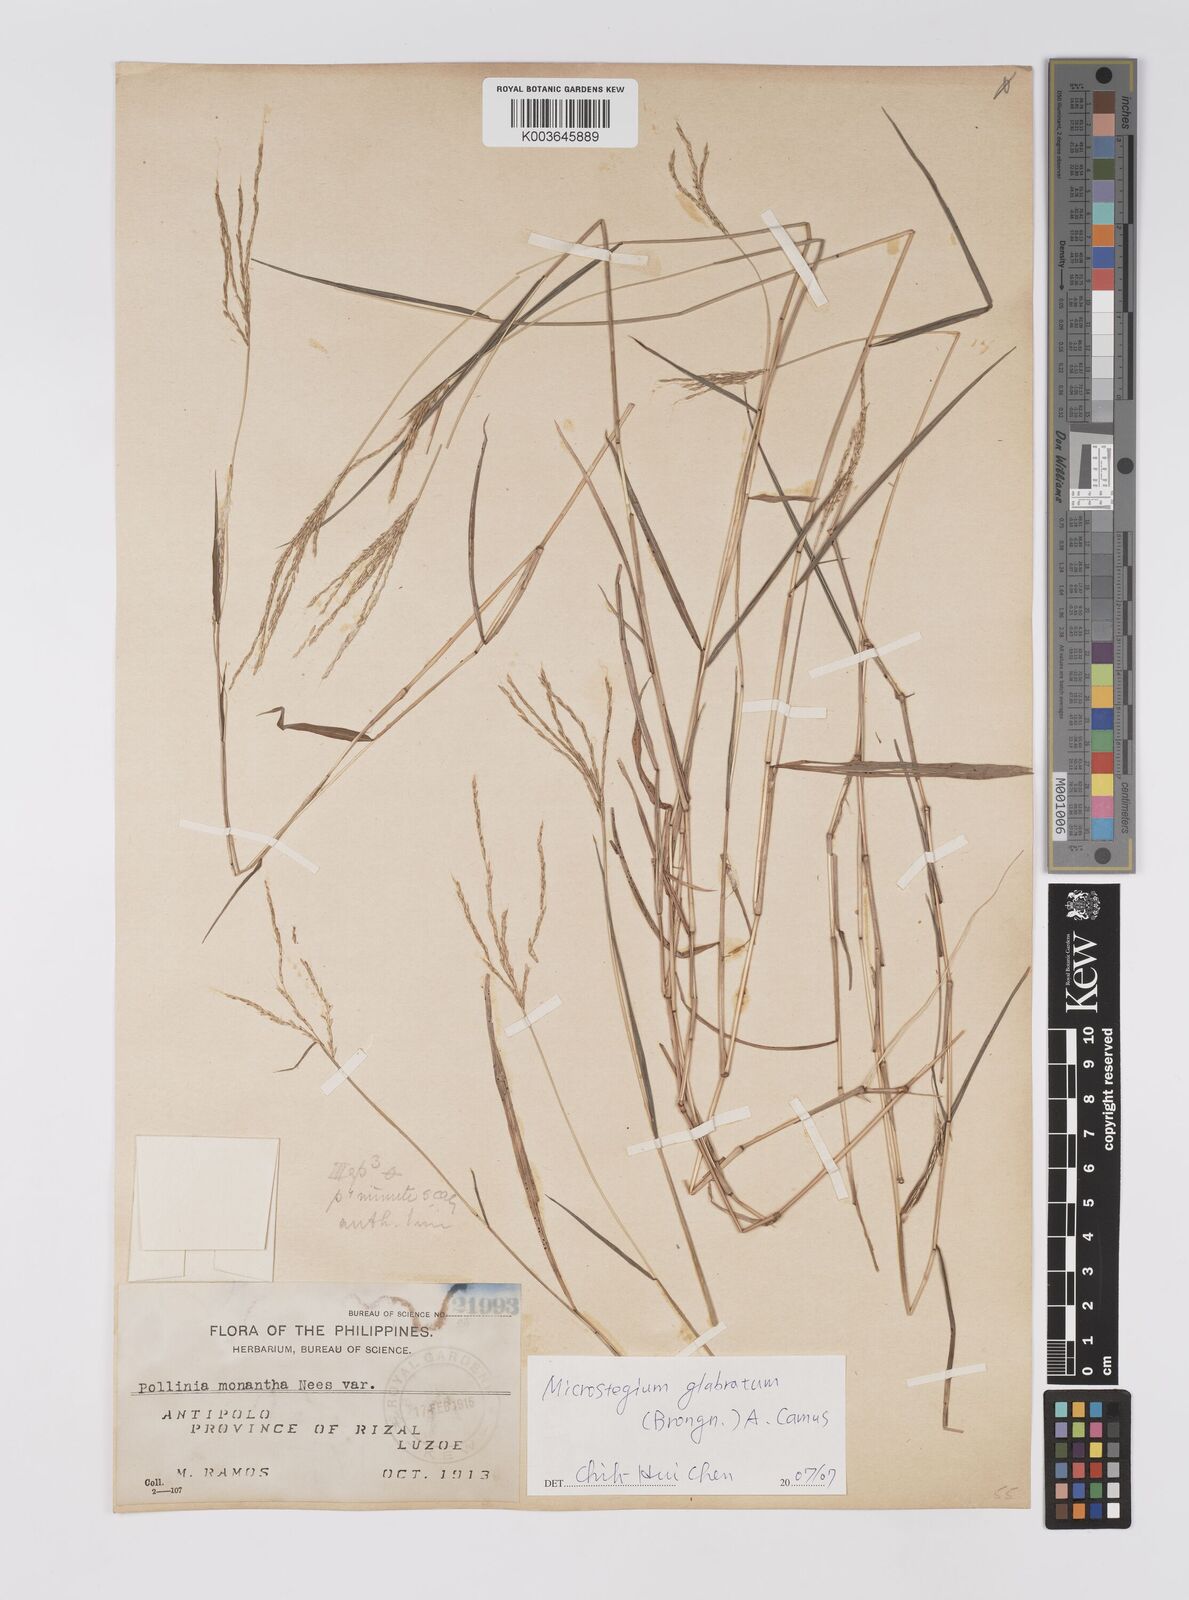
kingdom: Plantae
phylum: Tracheophyta
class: Liliopsida
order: Poales
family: Poaceae
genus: Microstegium
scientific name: Microstegium glabratum
